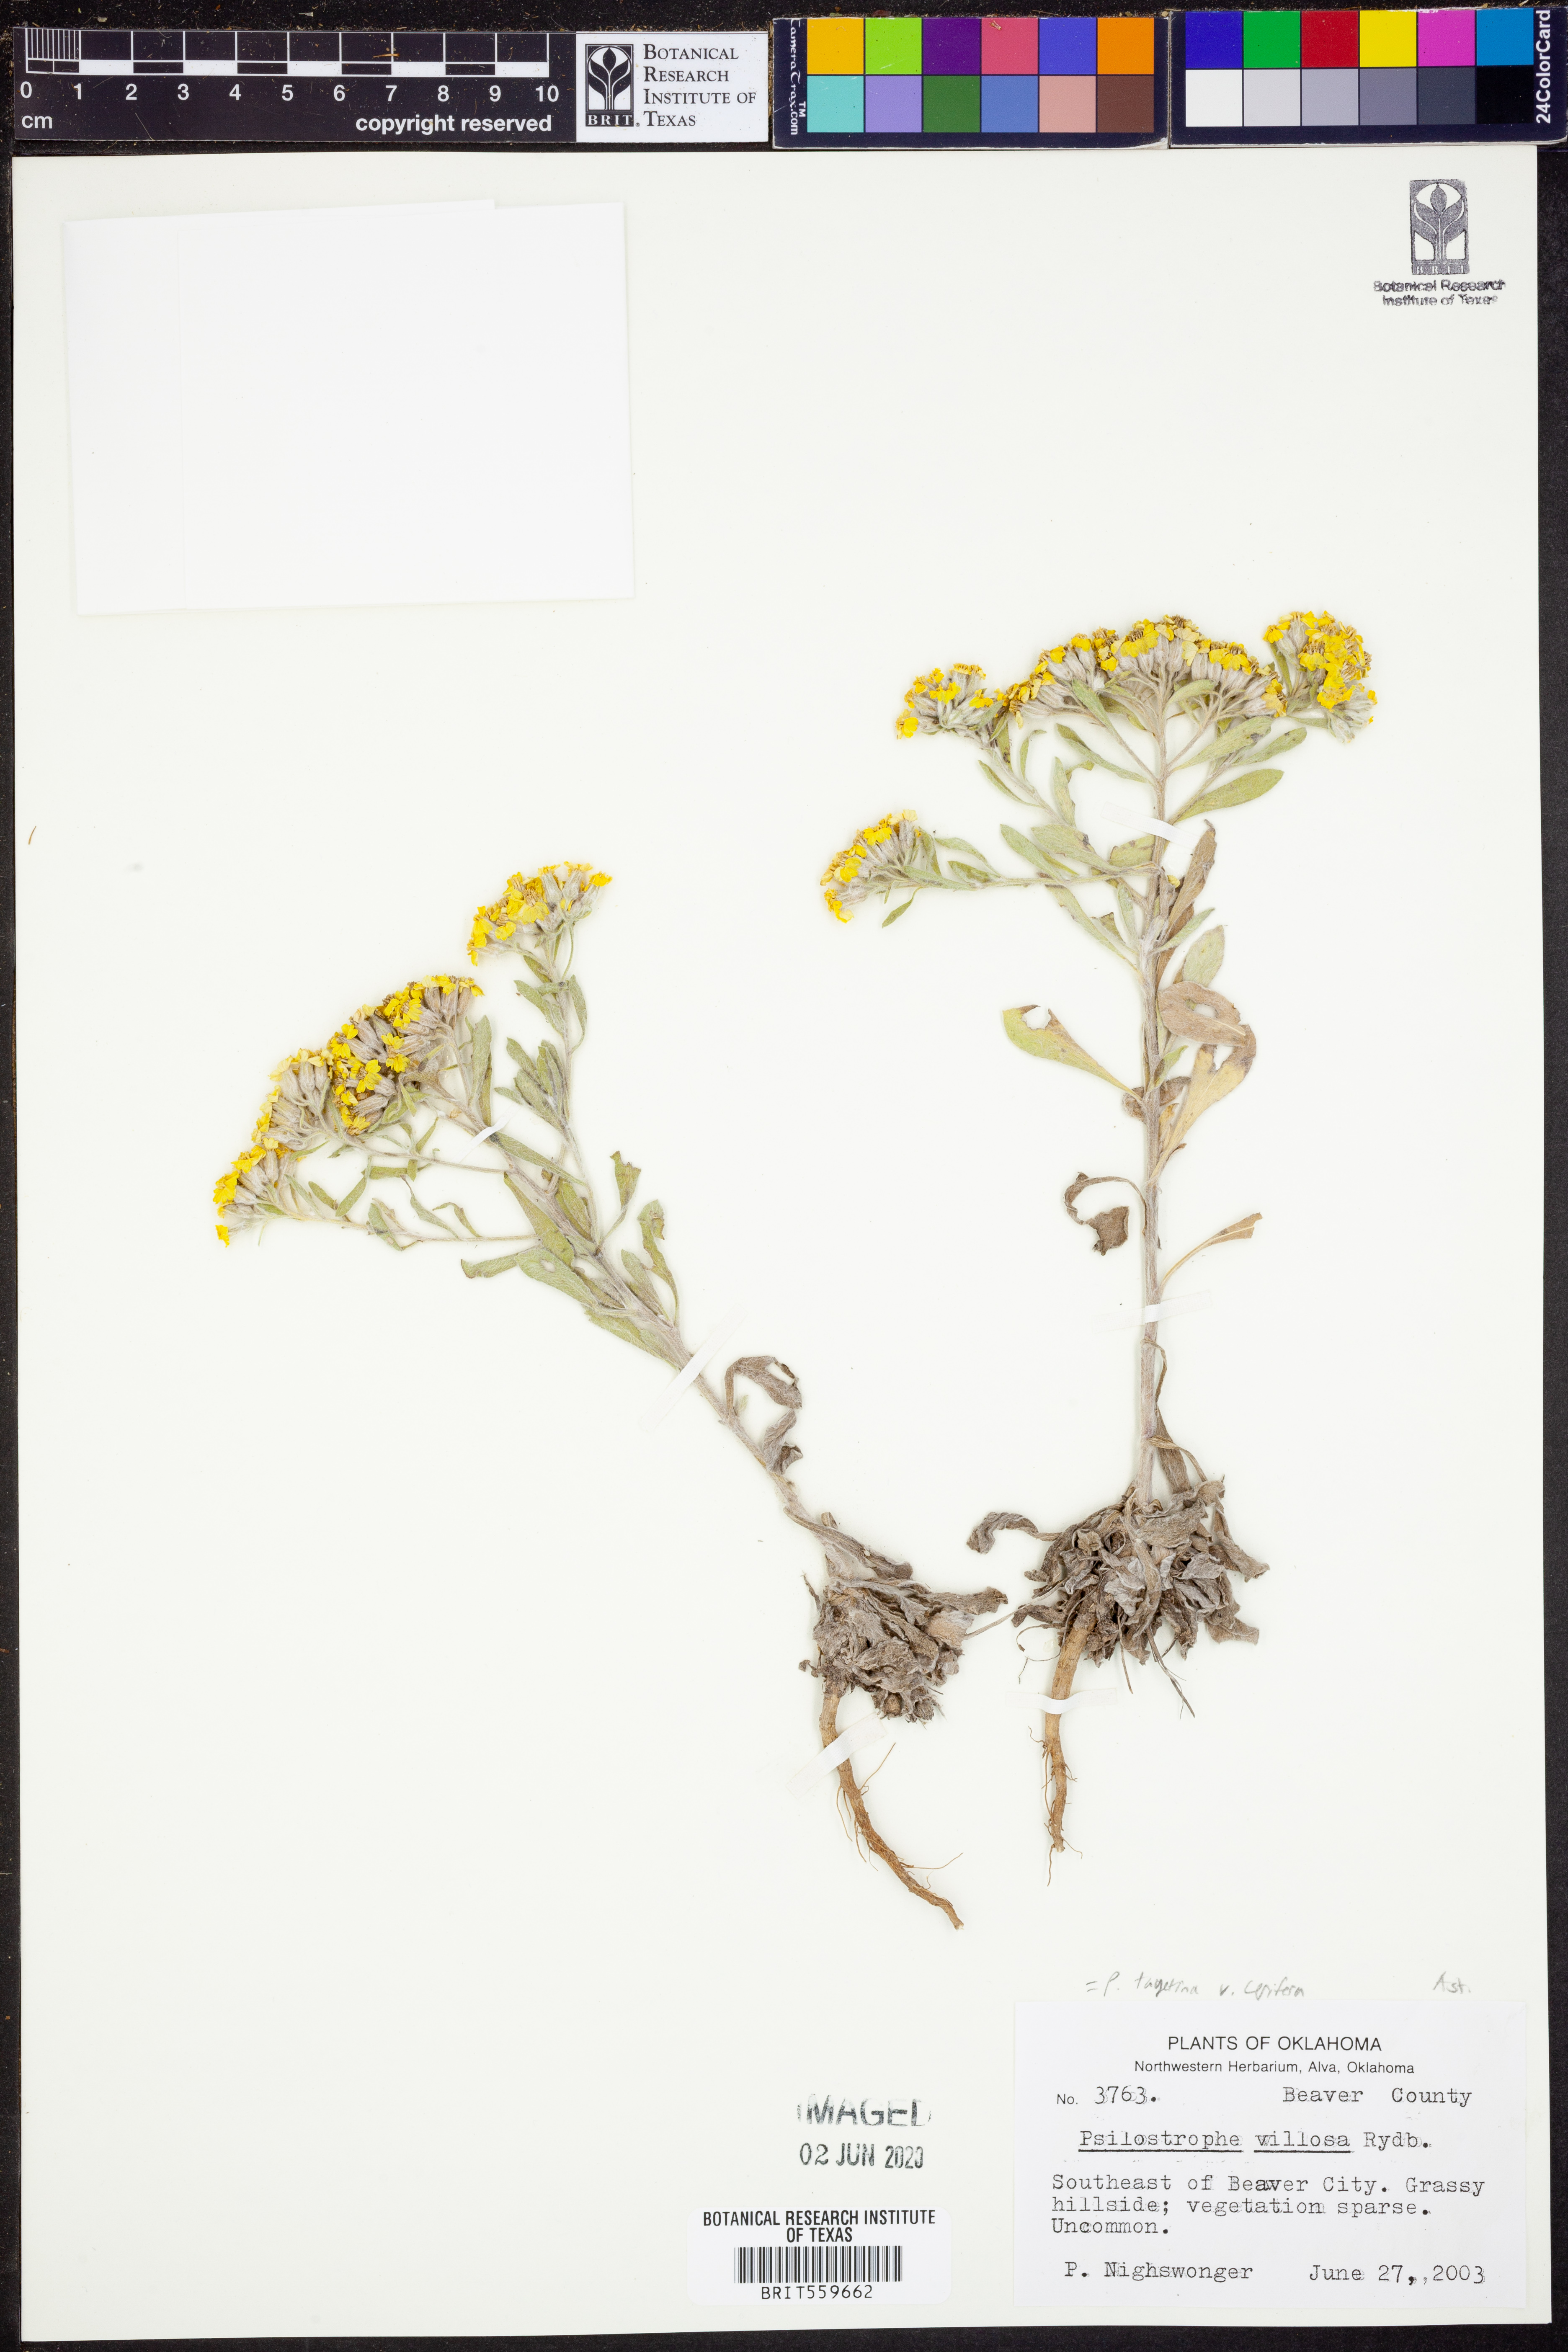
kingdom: Plantae
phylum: Tracheophyta
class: Magnoliopsida
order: Asterales
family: Asteraceae
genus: Psilostrophe
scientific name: Psilostrophe villosa
